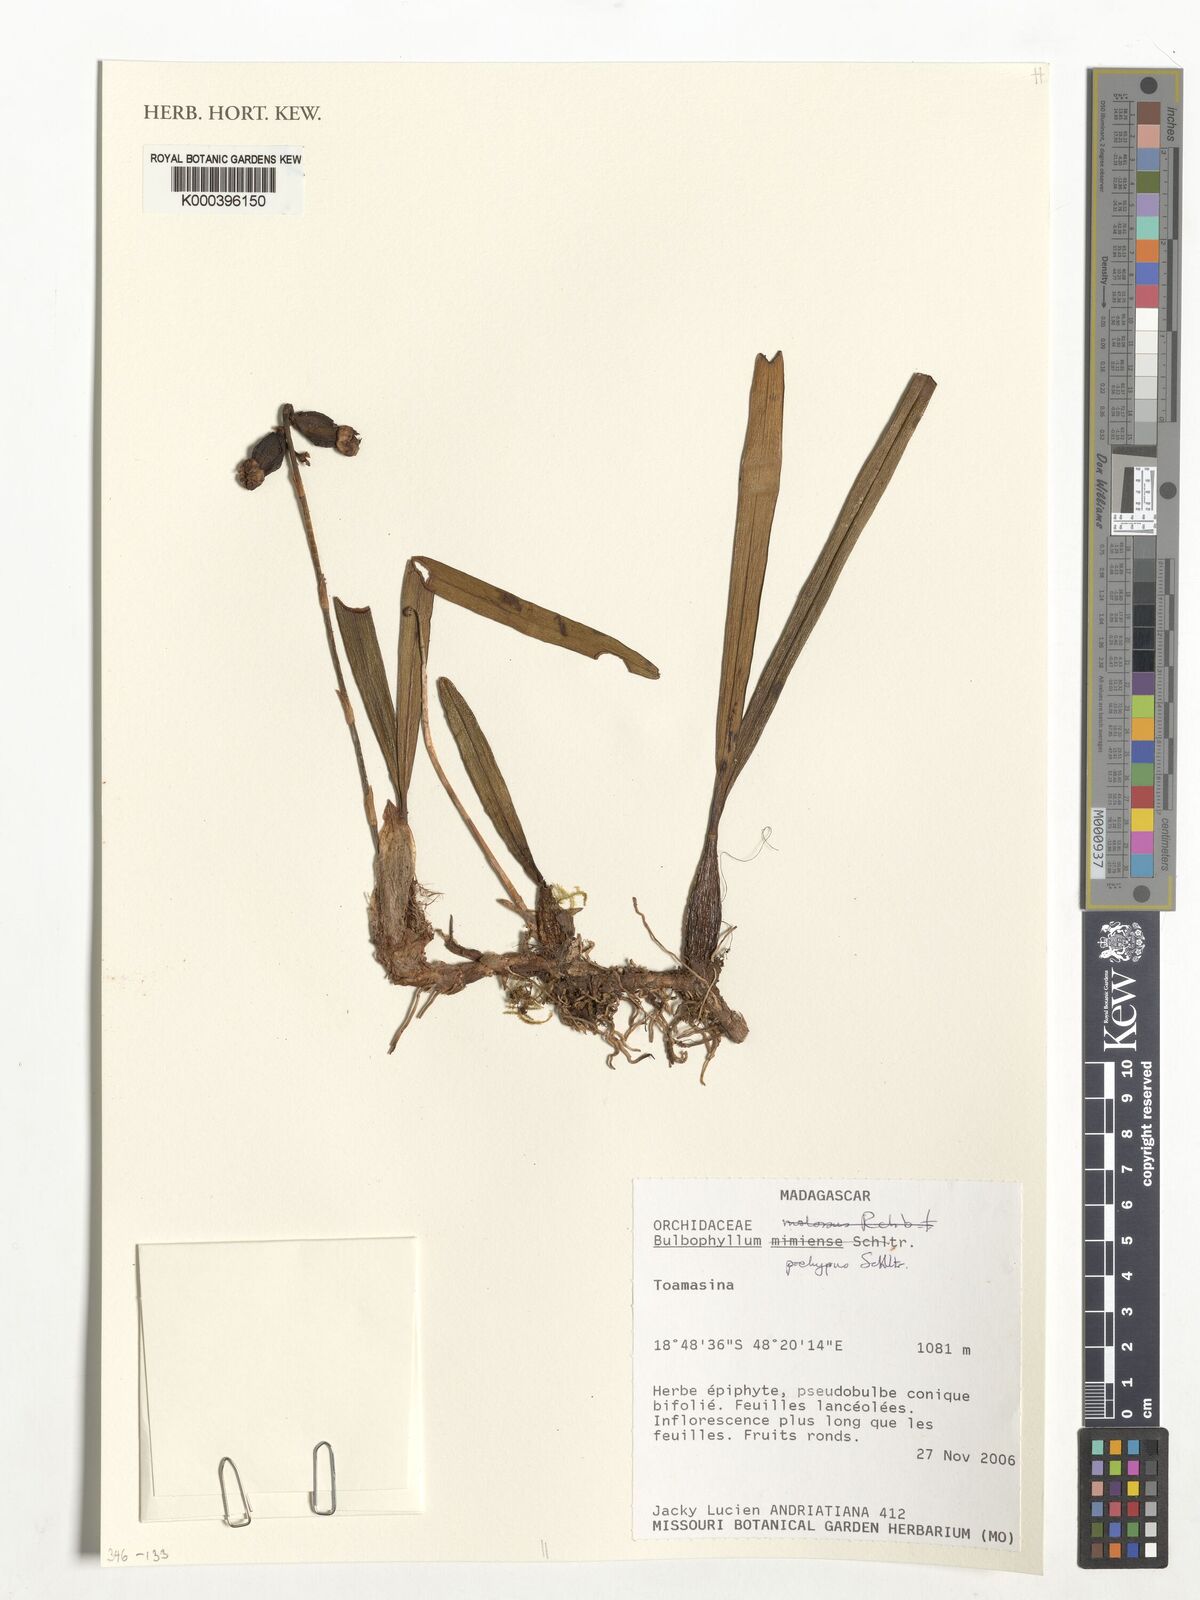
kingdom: Plantae
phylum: Tracheophyta
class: Liliopsida
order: Asparagales
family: Orchidaceae
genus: Bulbophyllum
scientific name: Bulbophyllum molossus
